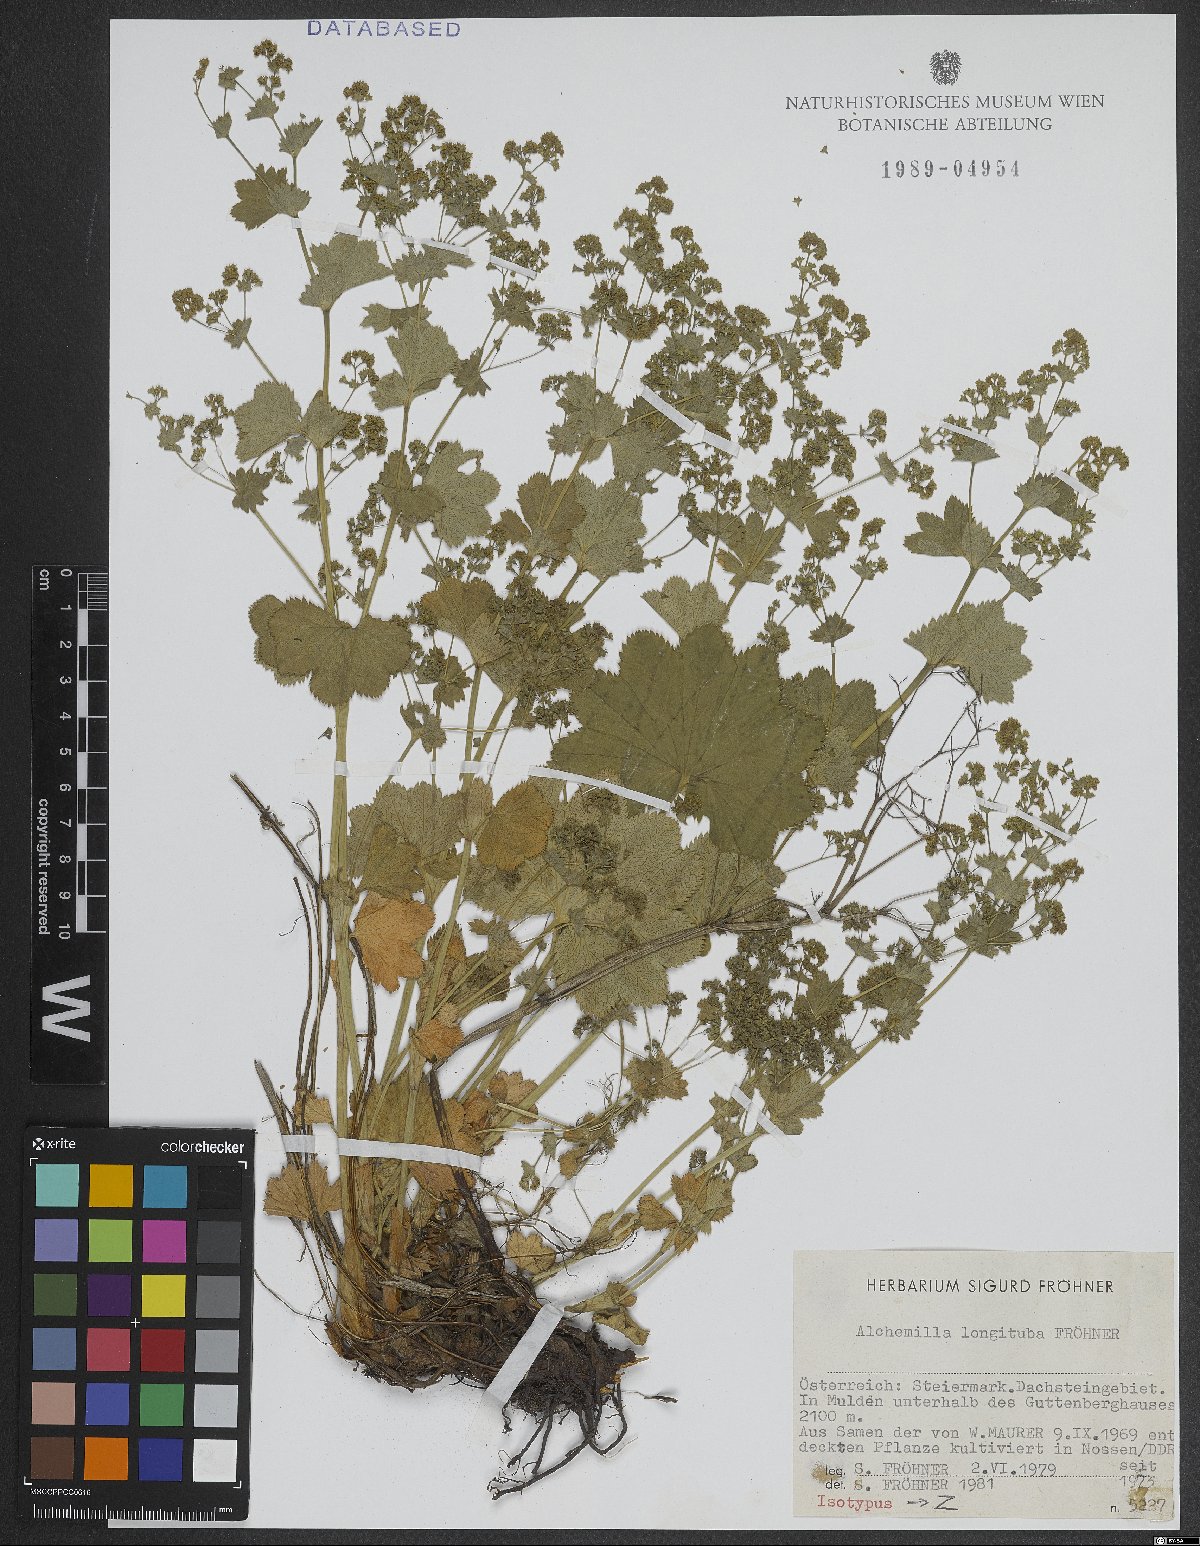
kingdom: Plantae
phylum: Tracheophyta
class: Magnoliopsida
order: Rosales
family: Rosaceae
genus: Alchemilla
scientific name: Alchemilla longituba
